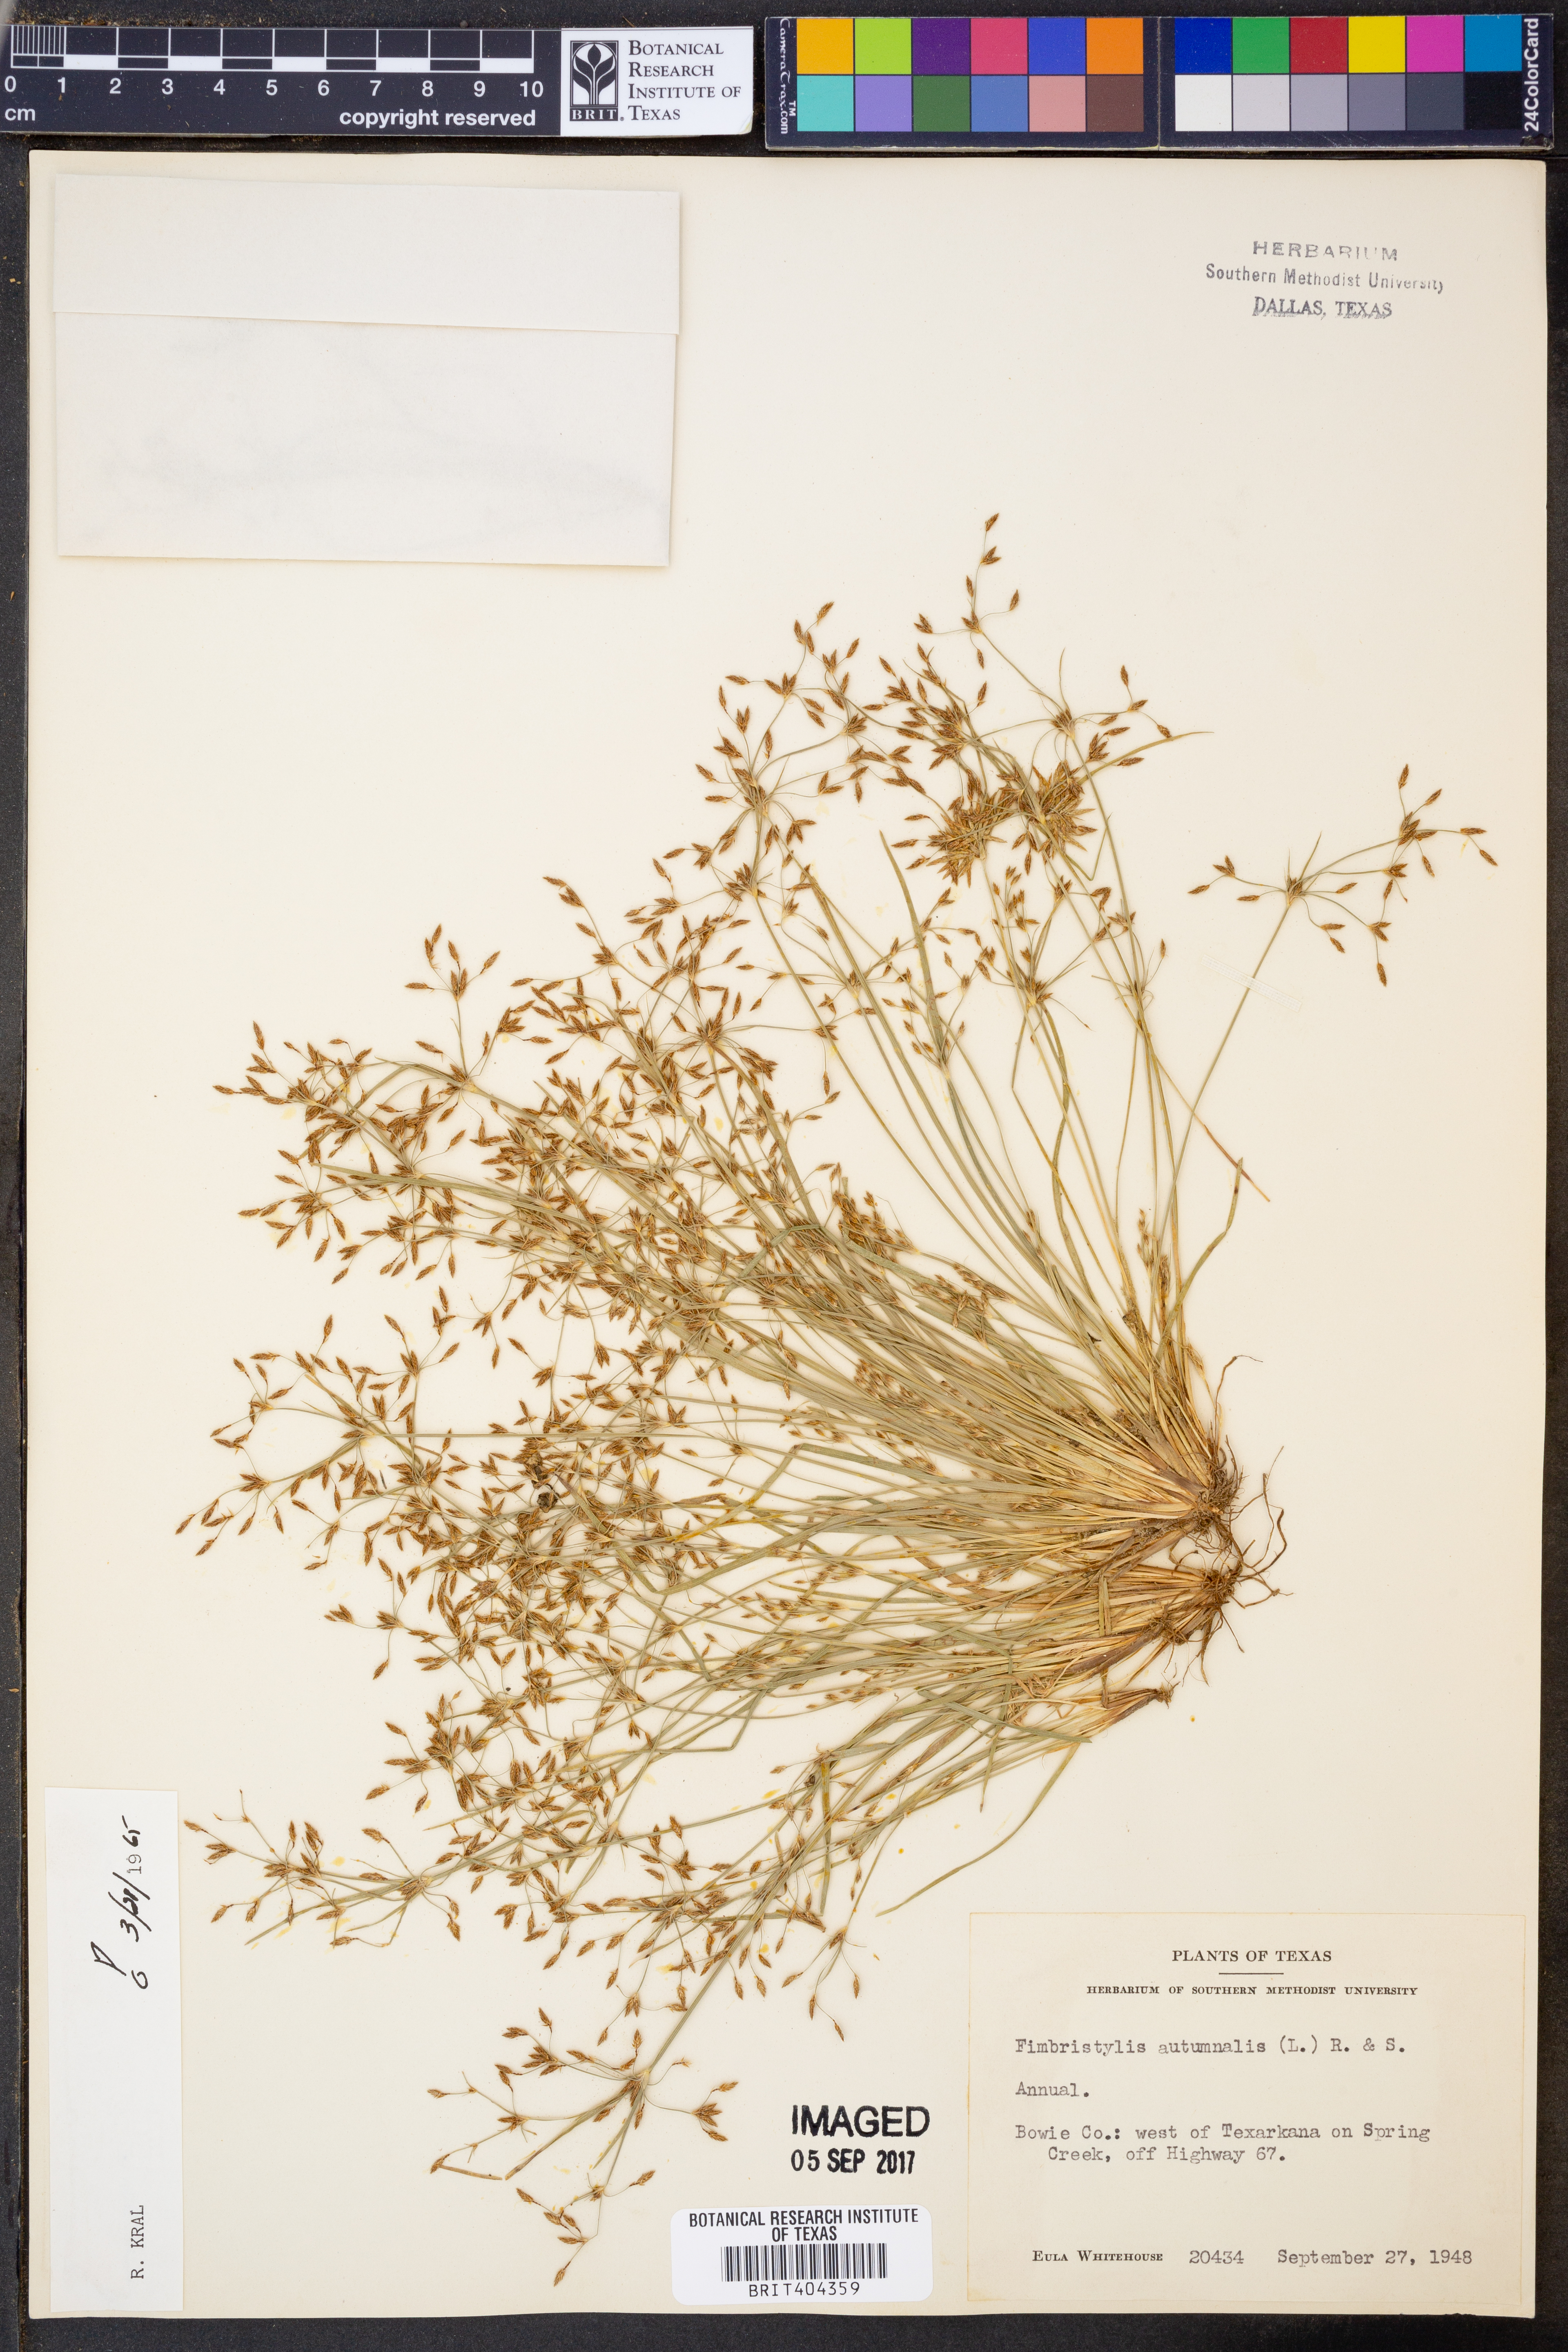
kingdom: Plantae
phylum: Tracheophyta
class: Liliopsida
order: Poales
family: Cyperaceae
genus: Fimbristylis
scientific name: Fimbristylis autumnalis
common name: Slender fimbristylis
